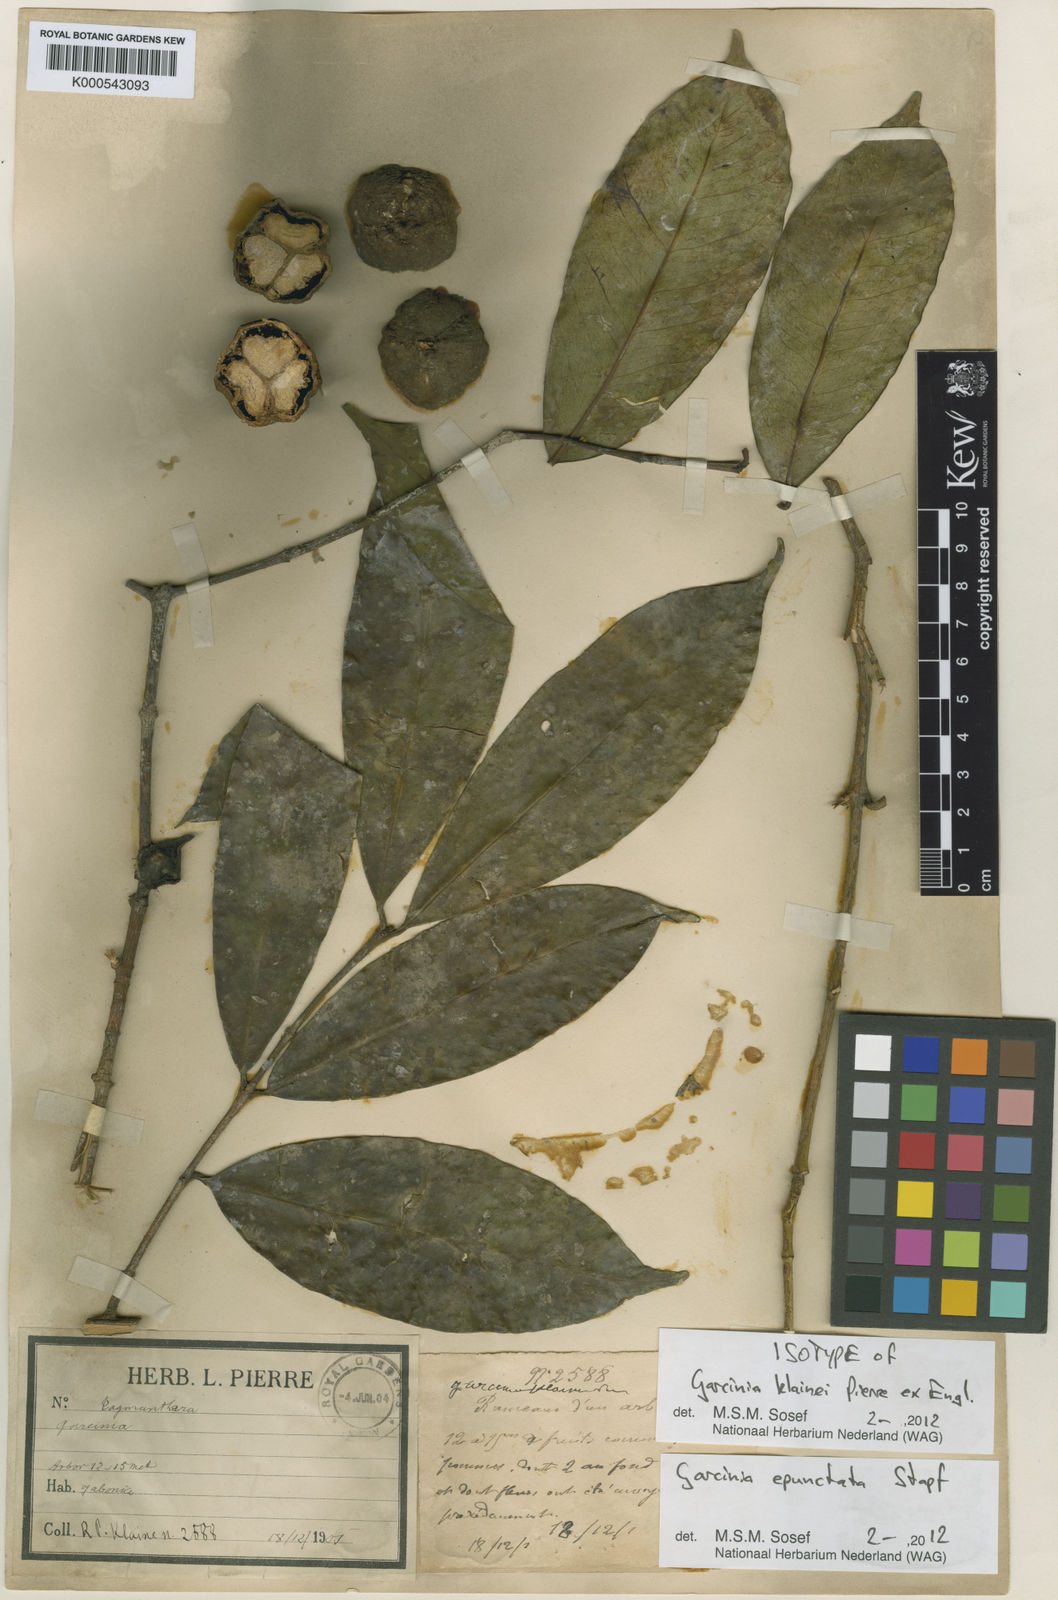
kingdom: Plantae
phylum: Tracheophyta
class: Magnoliopsida
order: Malpighiales
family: Clusiaceae
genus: Garcinia
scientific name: Garcinia epunctata
